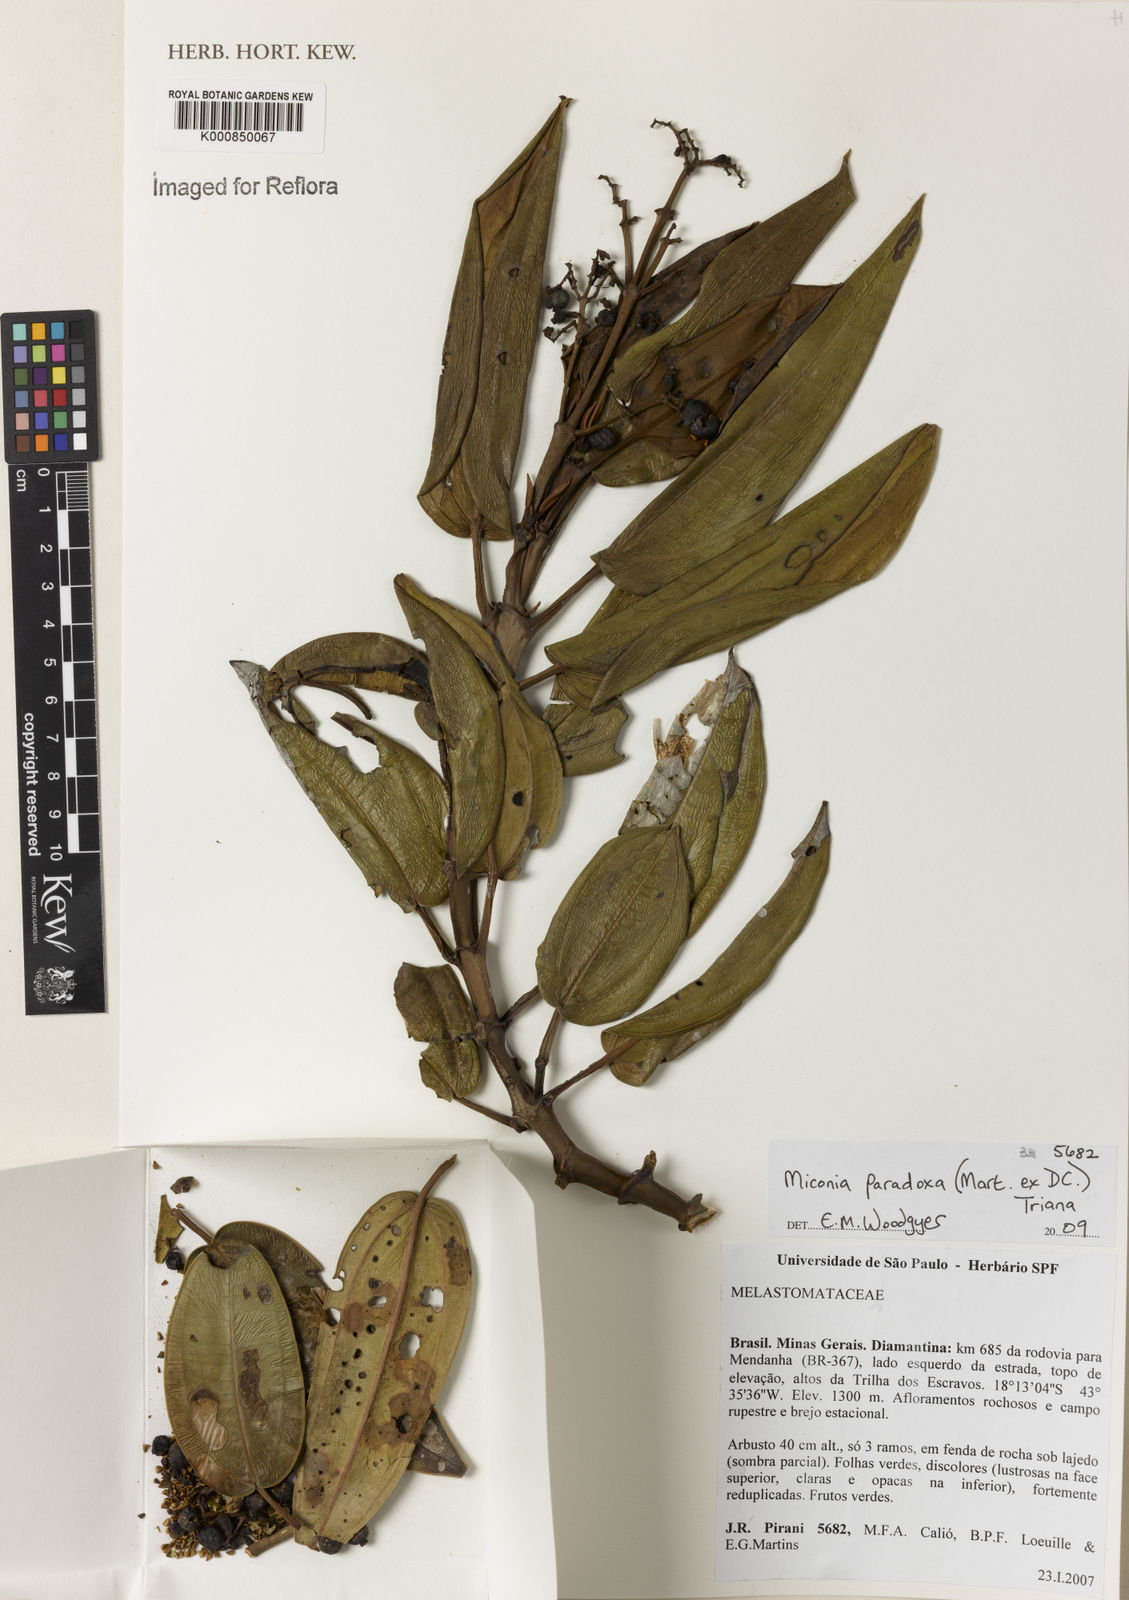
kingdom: Plantae
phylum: Tracheophyta
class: Magnoliopsida
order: Myrtales
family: Melastomataceae
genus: Miconia
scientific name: Miconia paradoxa
